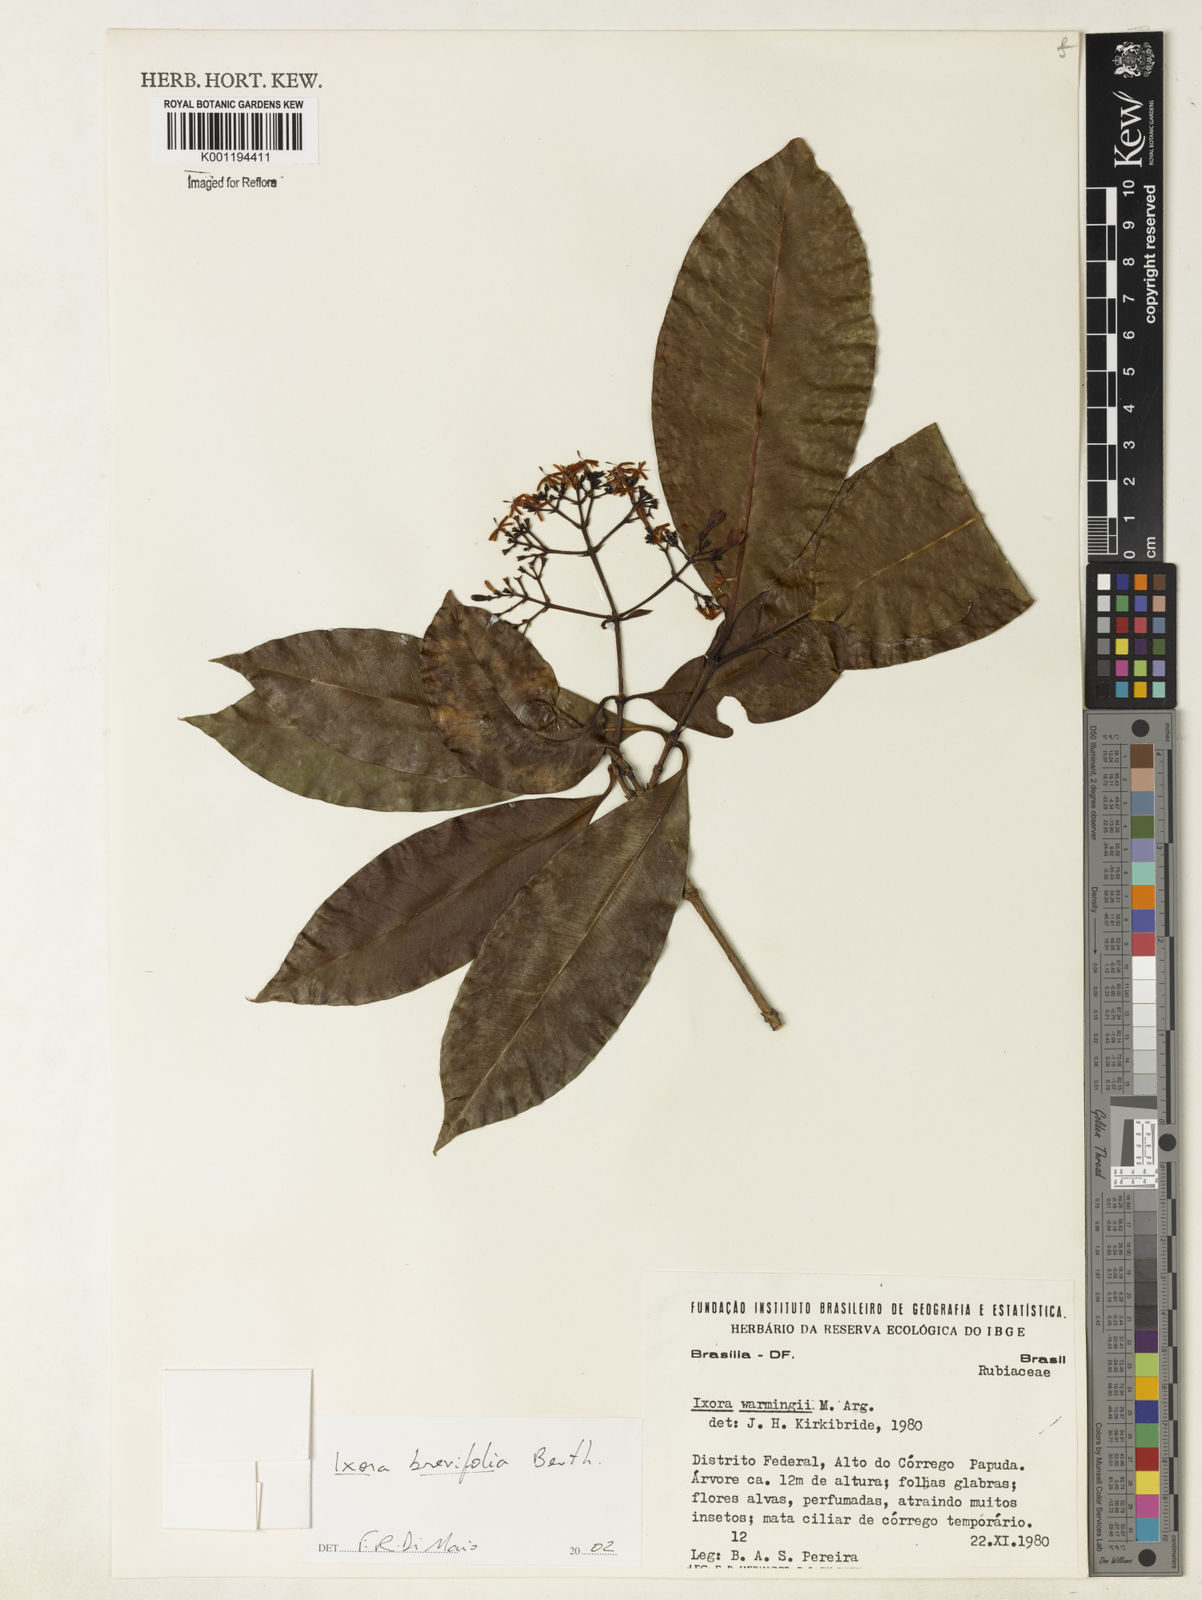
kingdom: Plantae
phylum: Tracheophyta
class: Magnoliopsida
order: Gentianales
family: Rubiaceae
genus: Ixora
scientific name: Ixora brevifolia
